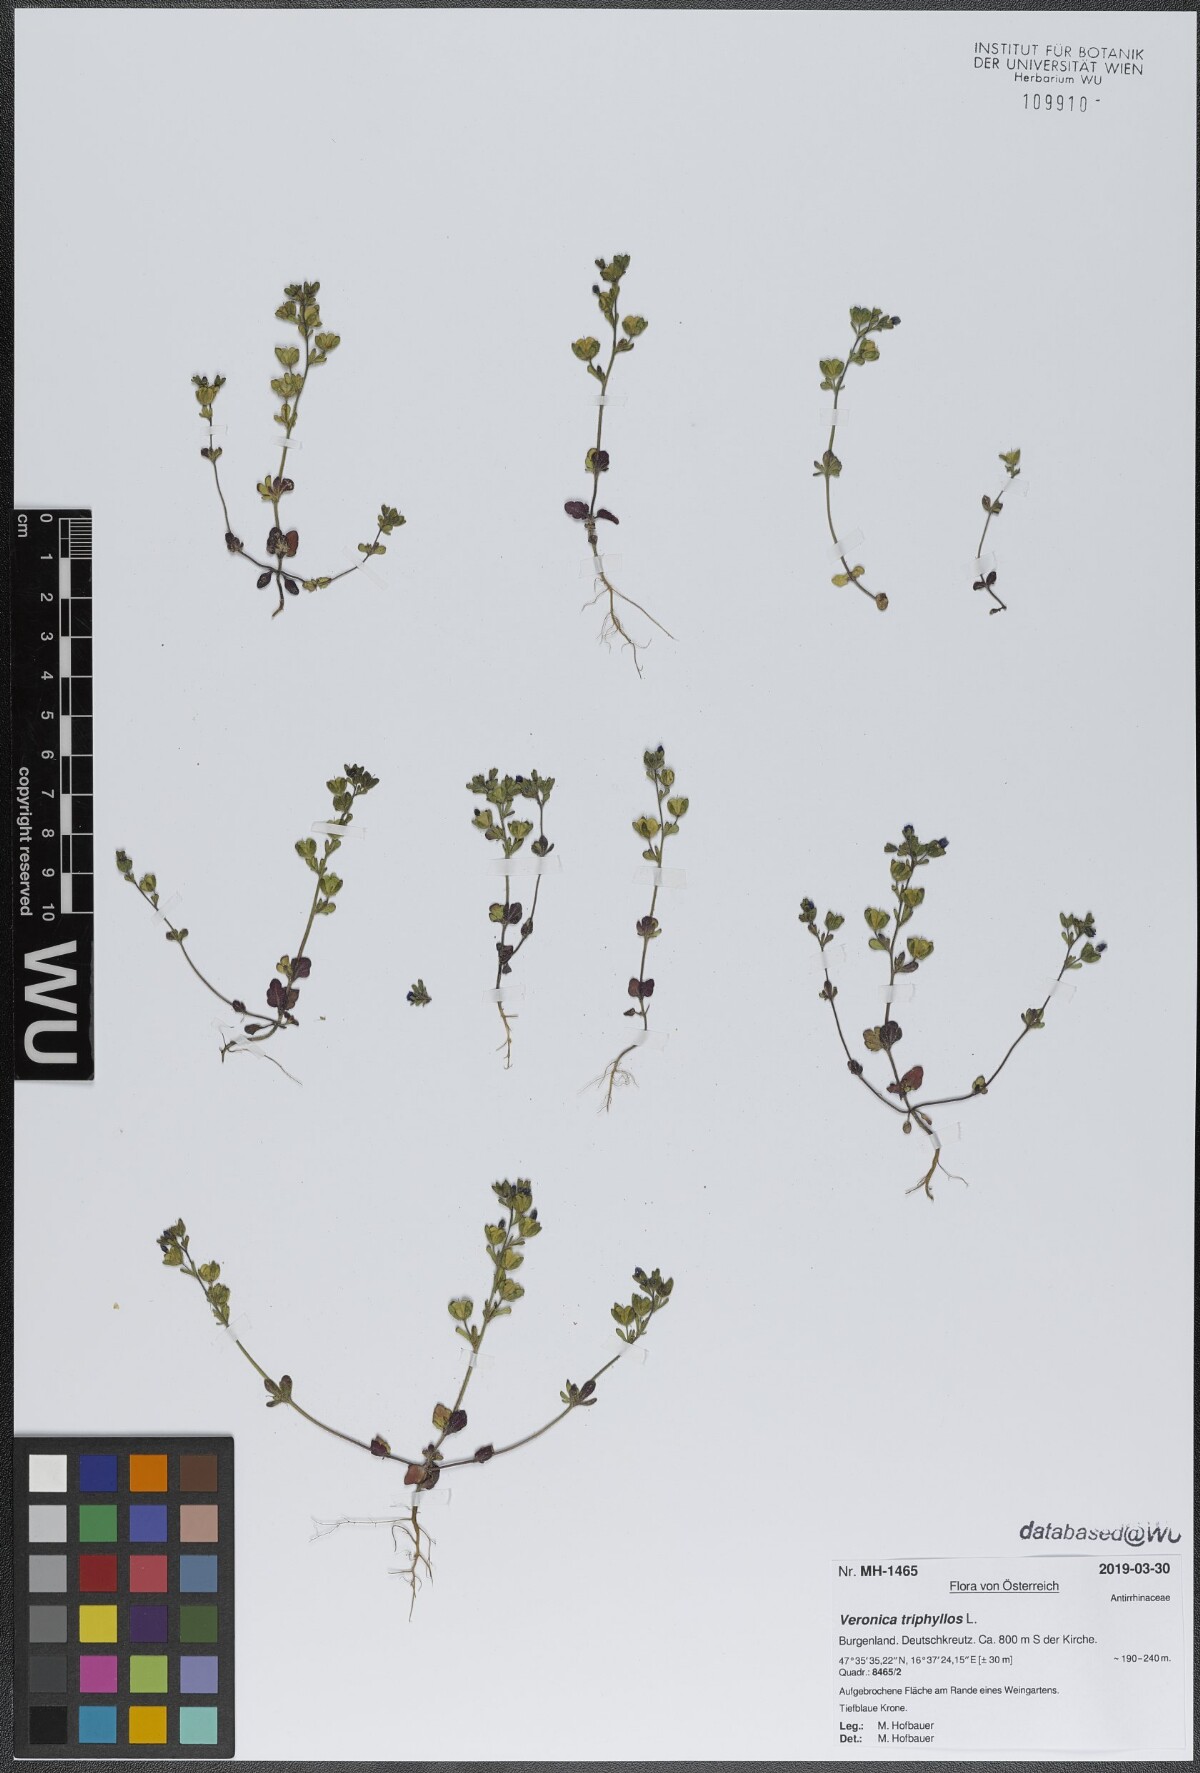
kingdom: Plantae
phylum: Tracheophyta
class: Magnoliopsida
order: Lamiales
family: Plantaginaceae
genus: Veronica
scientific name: Veronica triphyllos
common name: Fingered speedwell
